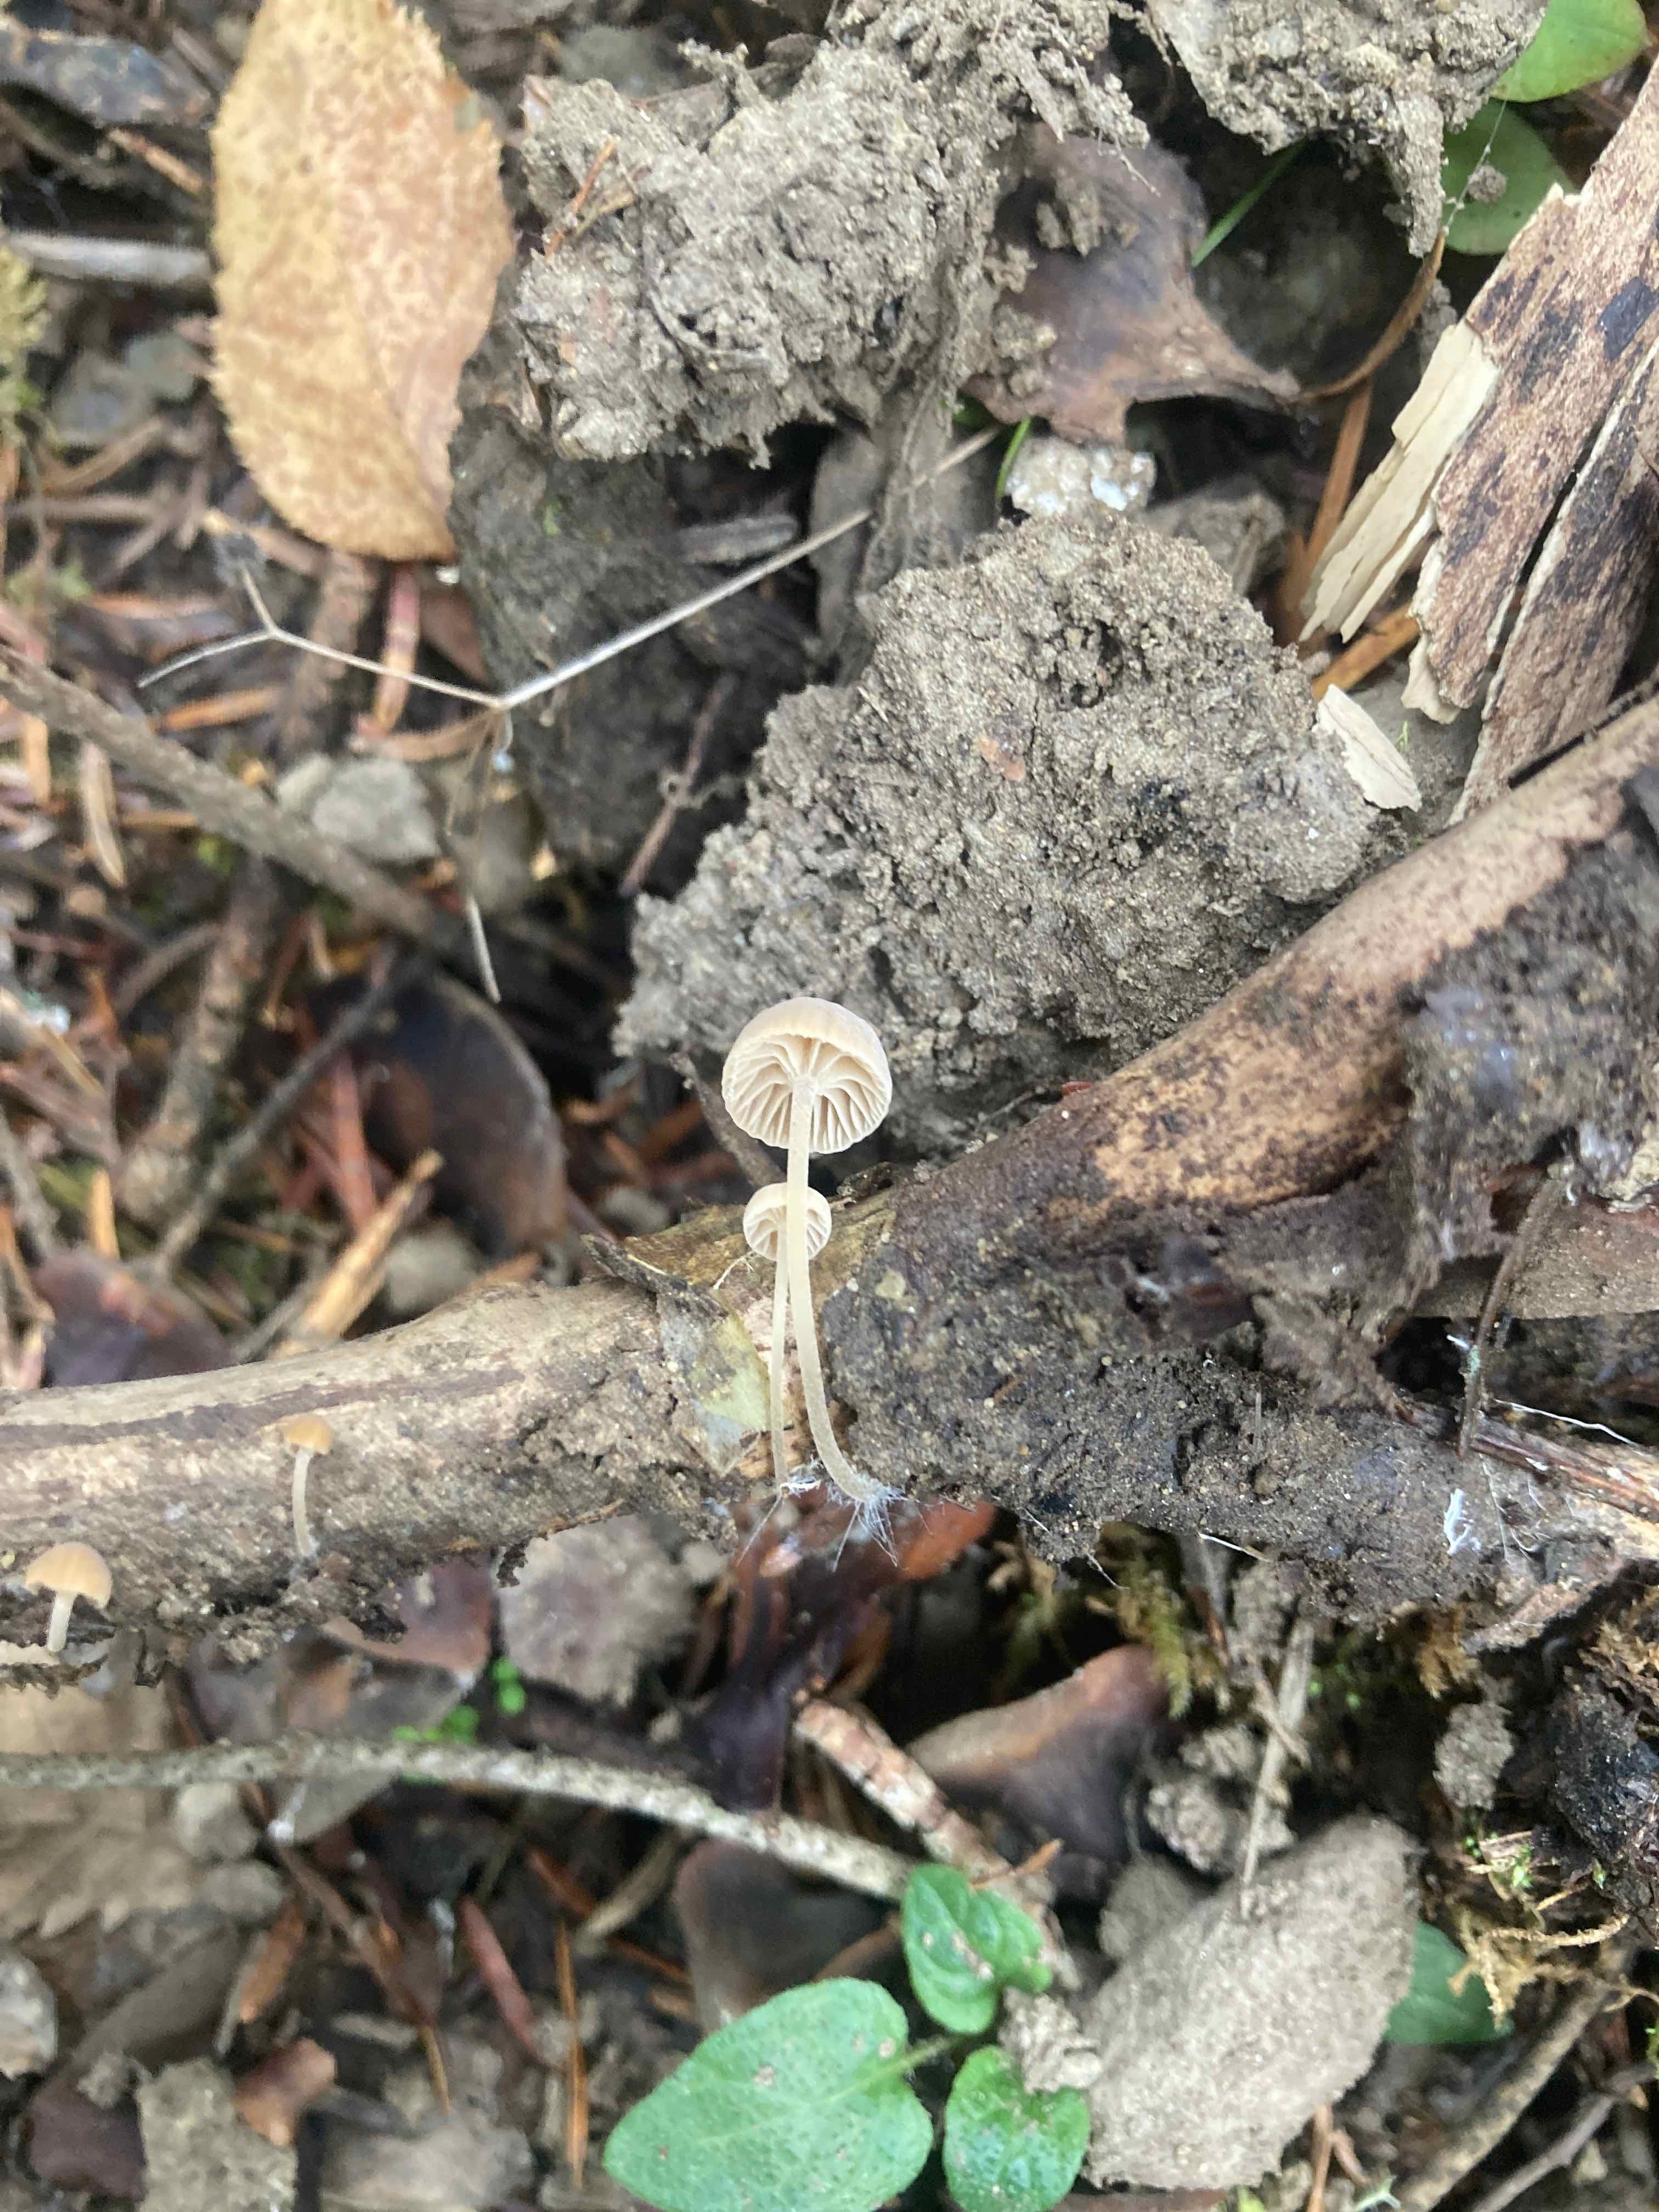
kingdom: Fungi
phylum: Basidiomycota
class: Agaricomycetes
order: Agaricales
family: Porotheleaceae
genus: Phloeomana
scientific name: Phloeomana clavata
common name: brunbladet huesvamp
